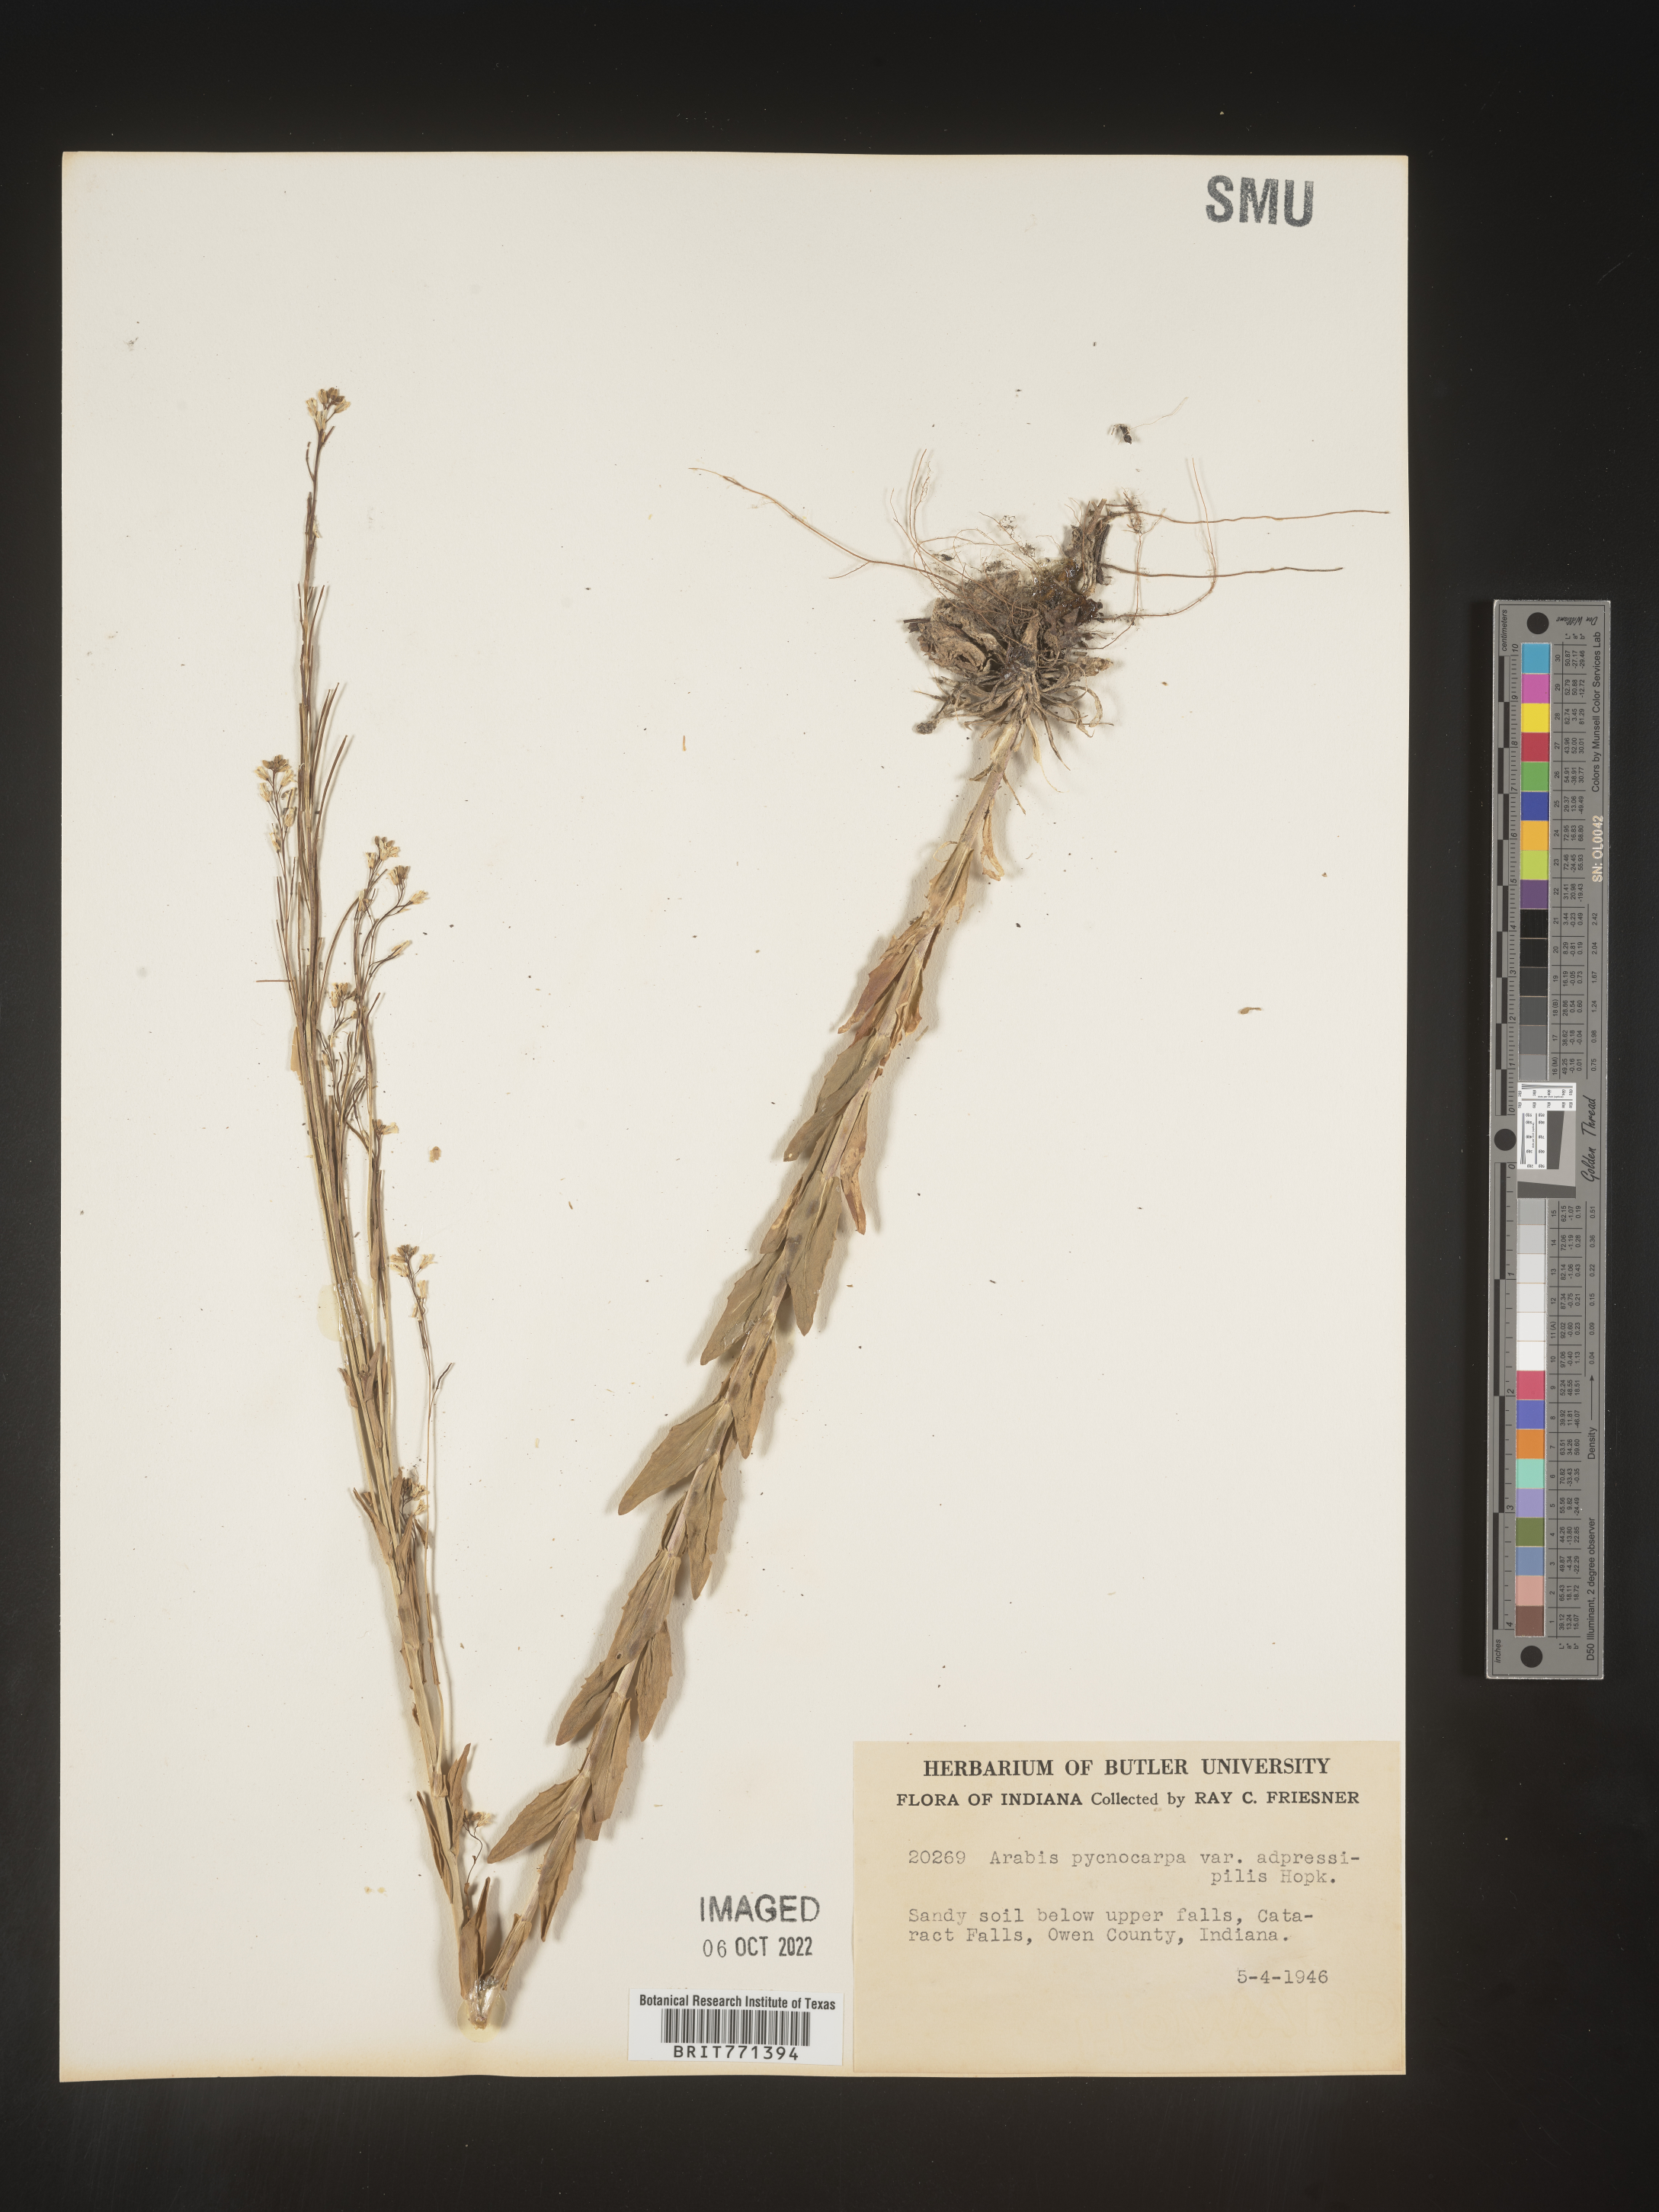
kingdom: Plantae
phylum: Tracheophyta
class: Magnoliopsida
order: Brassicales
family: Brassicaceae
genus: Arabis
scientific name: Arabis
